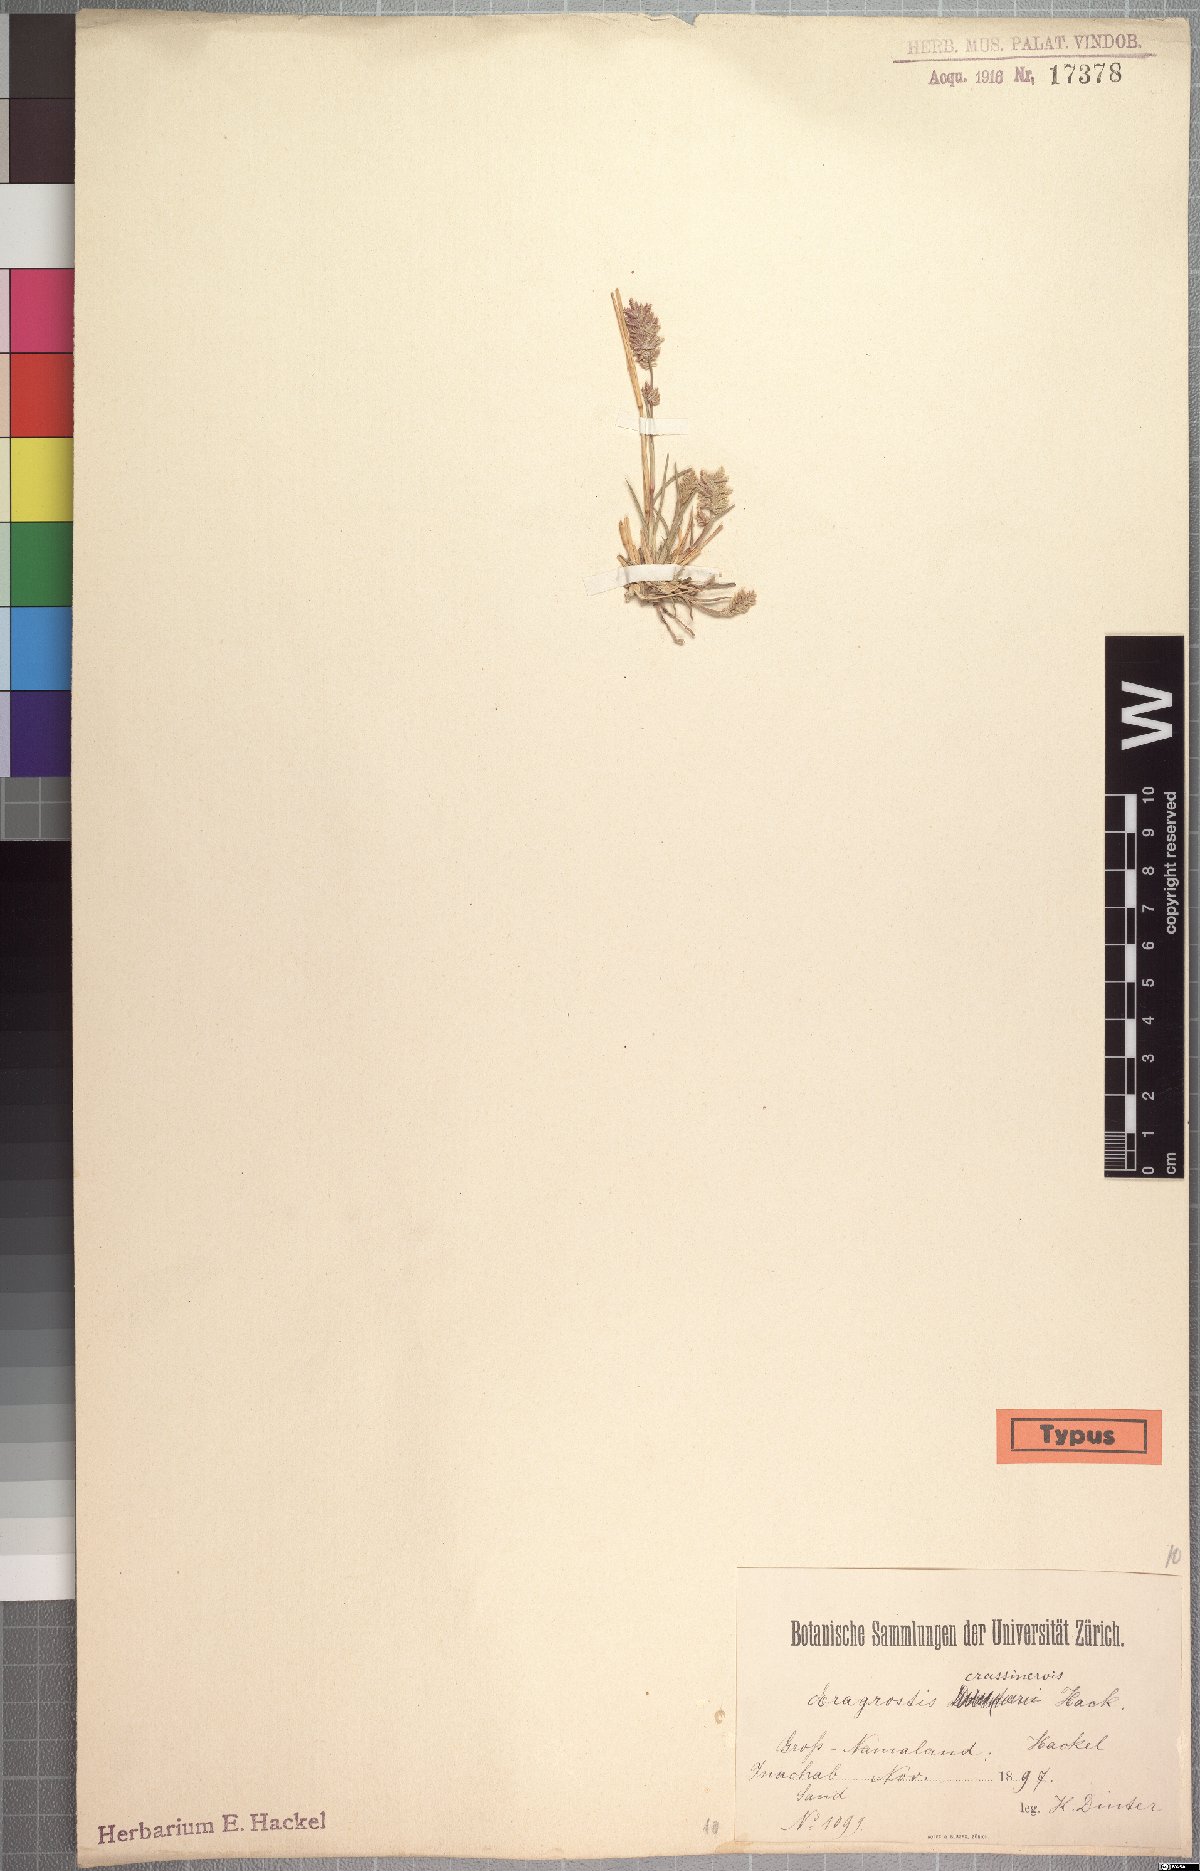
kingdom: Plantae
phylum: Tracheophyta
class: Liliopsida
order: Poales
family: Poaceae
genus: Eragrostis
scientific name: Eragrostis crassinervis
